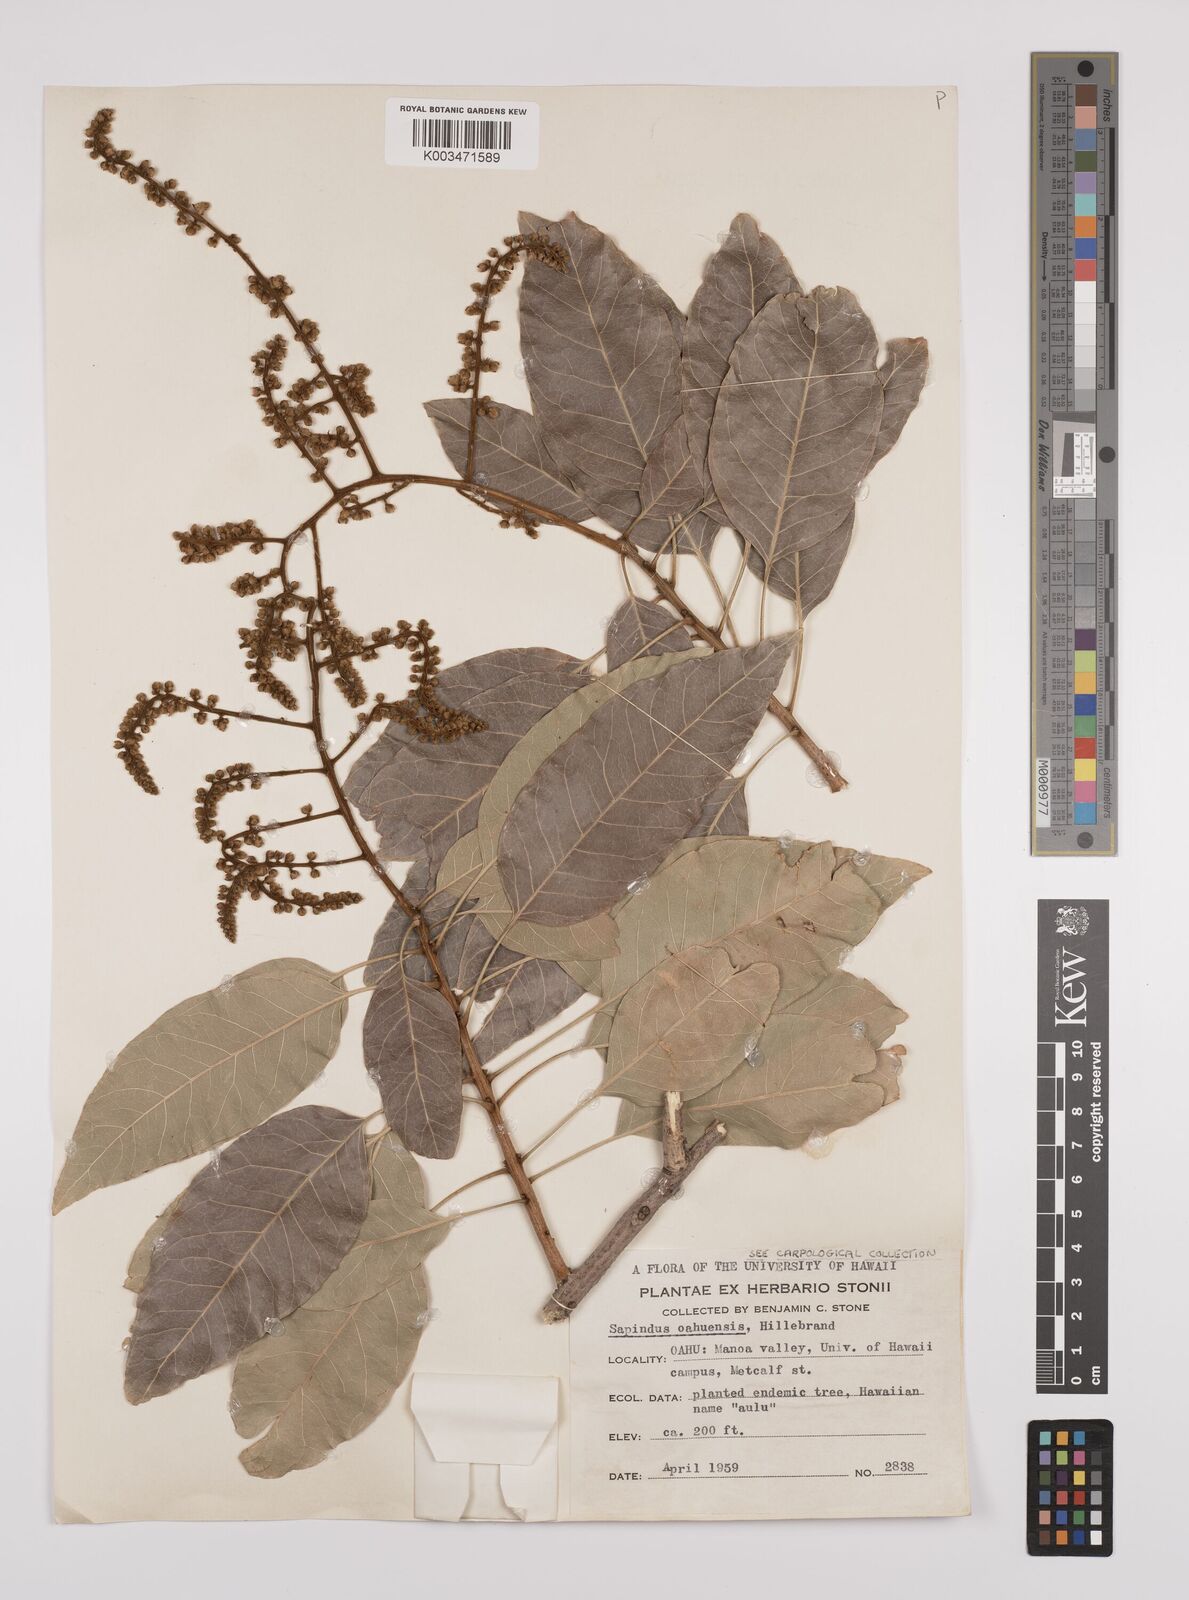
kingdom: Plantae
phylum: Tracheophyta
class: Magnoliopsida
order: Sapindales
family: Sapindaceae
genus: Sapindus
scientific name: Sapindus oahuensis
